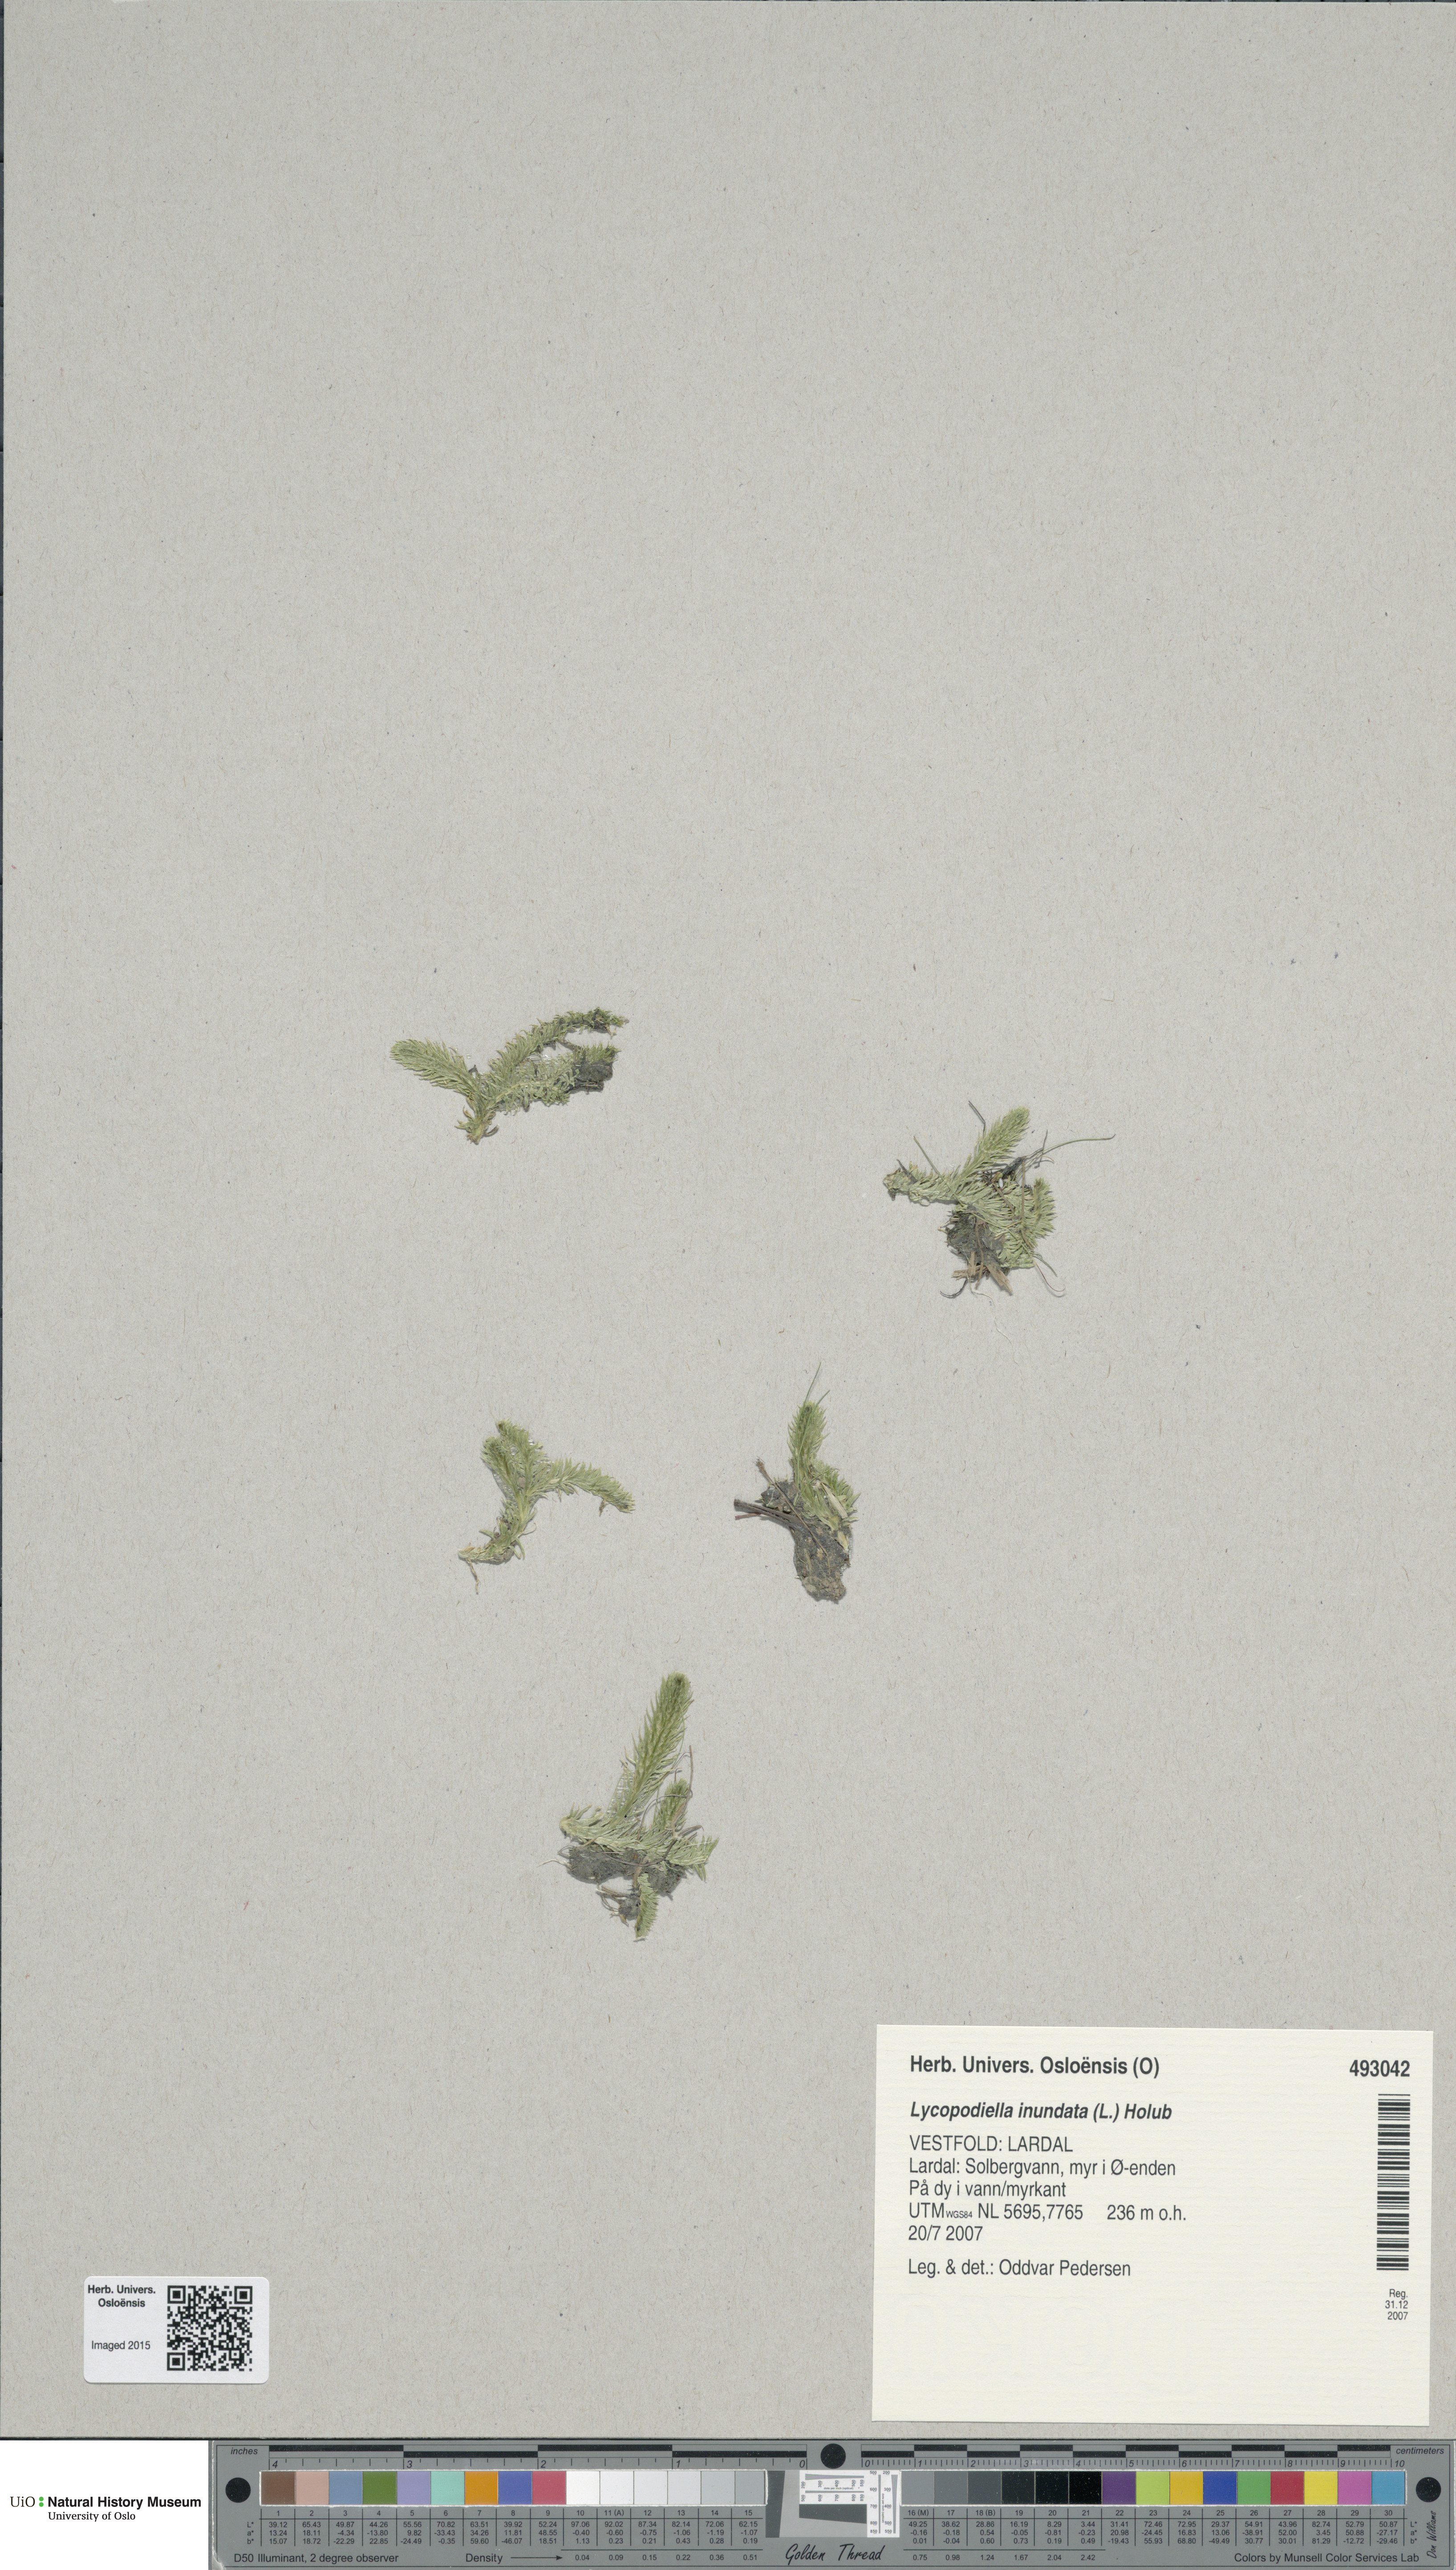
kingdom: Plantae
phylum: Tracheophyta
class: Lycopodiopsida
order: Lycopodiales
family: Lycopodiaceae
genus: Lycopodiella
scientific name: Lycopodiella inundata
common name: Marsh clubmoss
